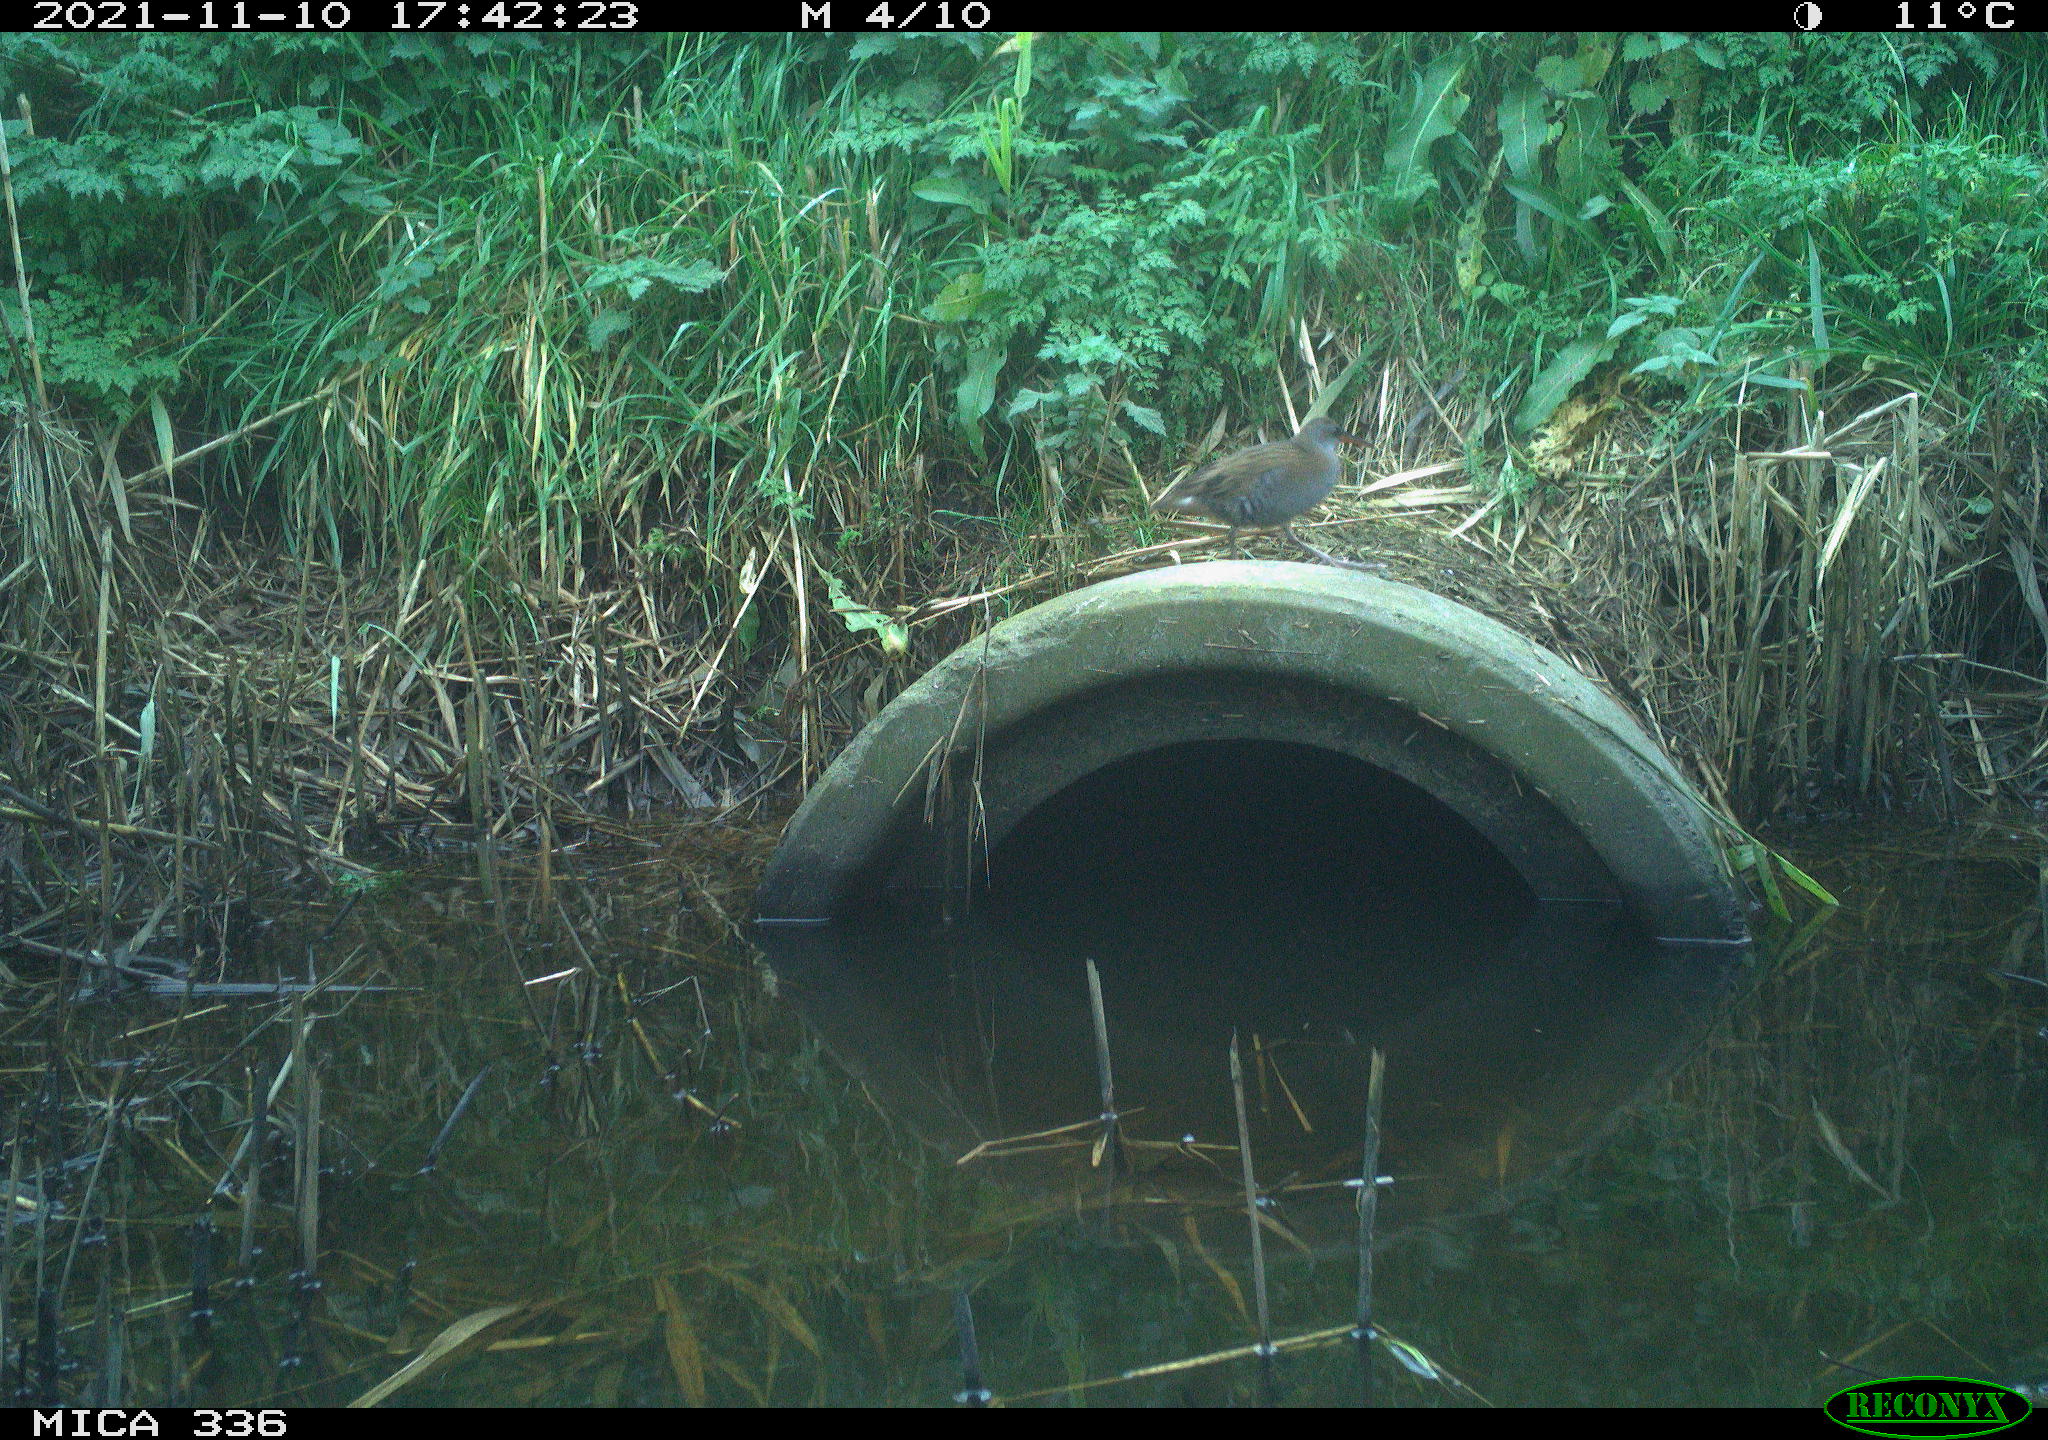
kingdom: Animalia
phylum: Chordata
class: Aves
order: Gruiformes
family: Rallidae
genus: Gallinula
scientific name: Gallinula chloropus
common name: Common moorhen
